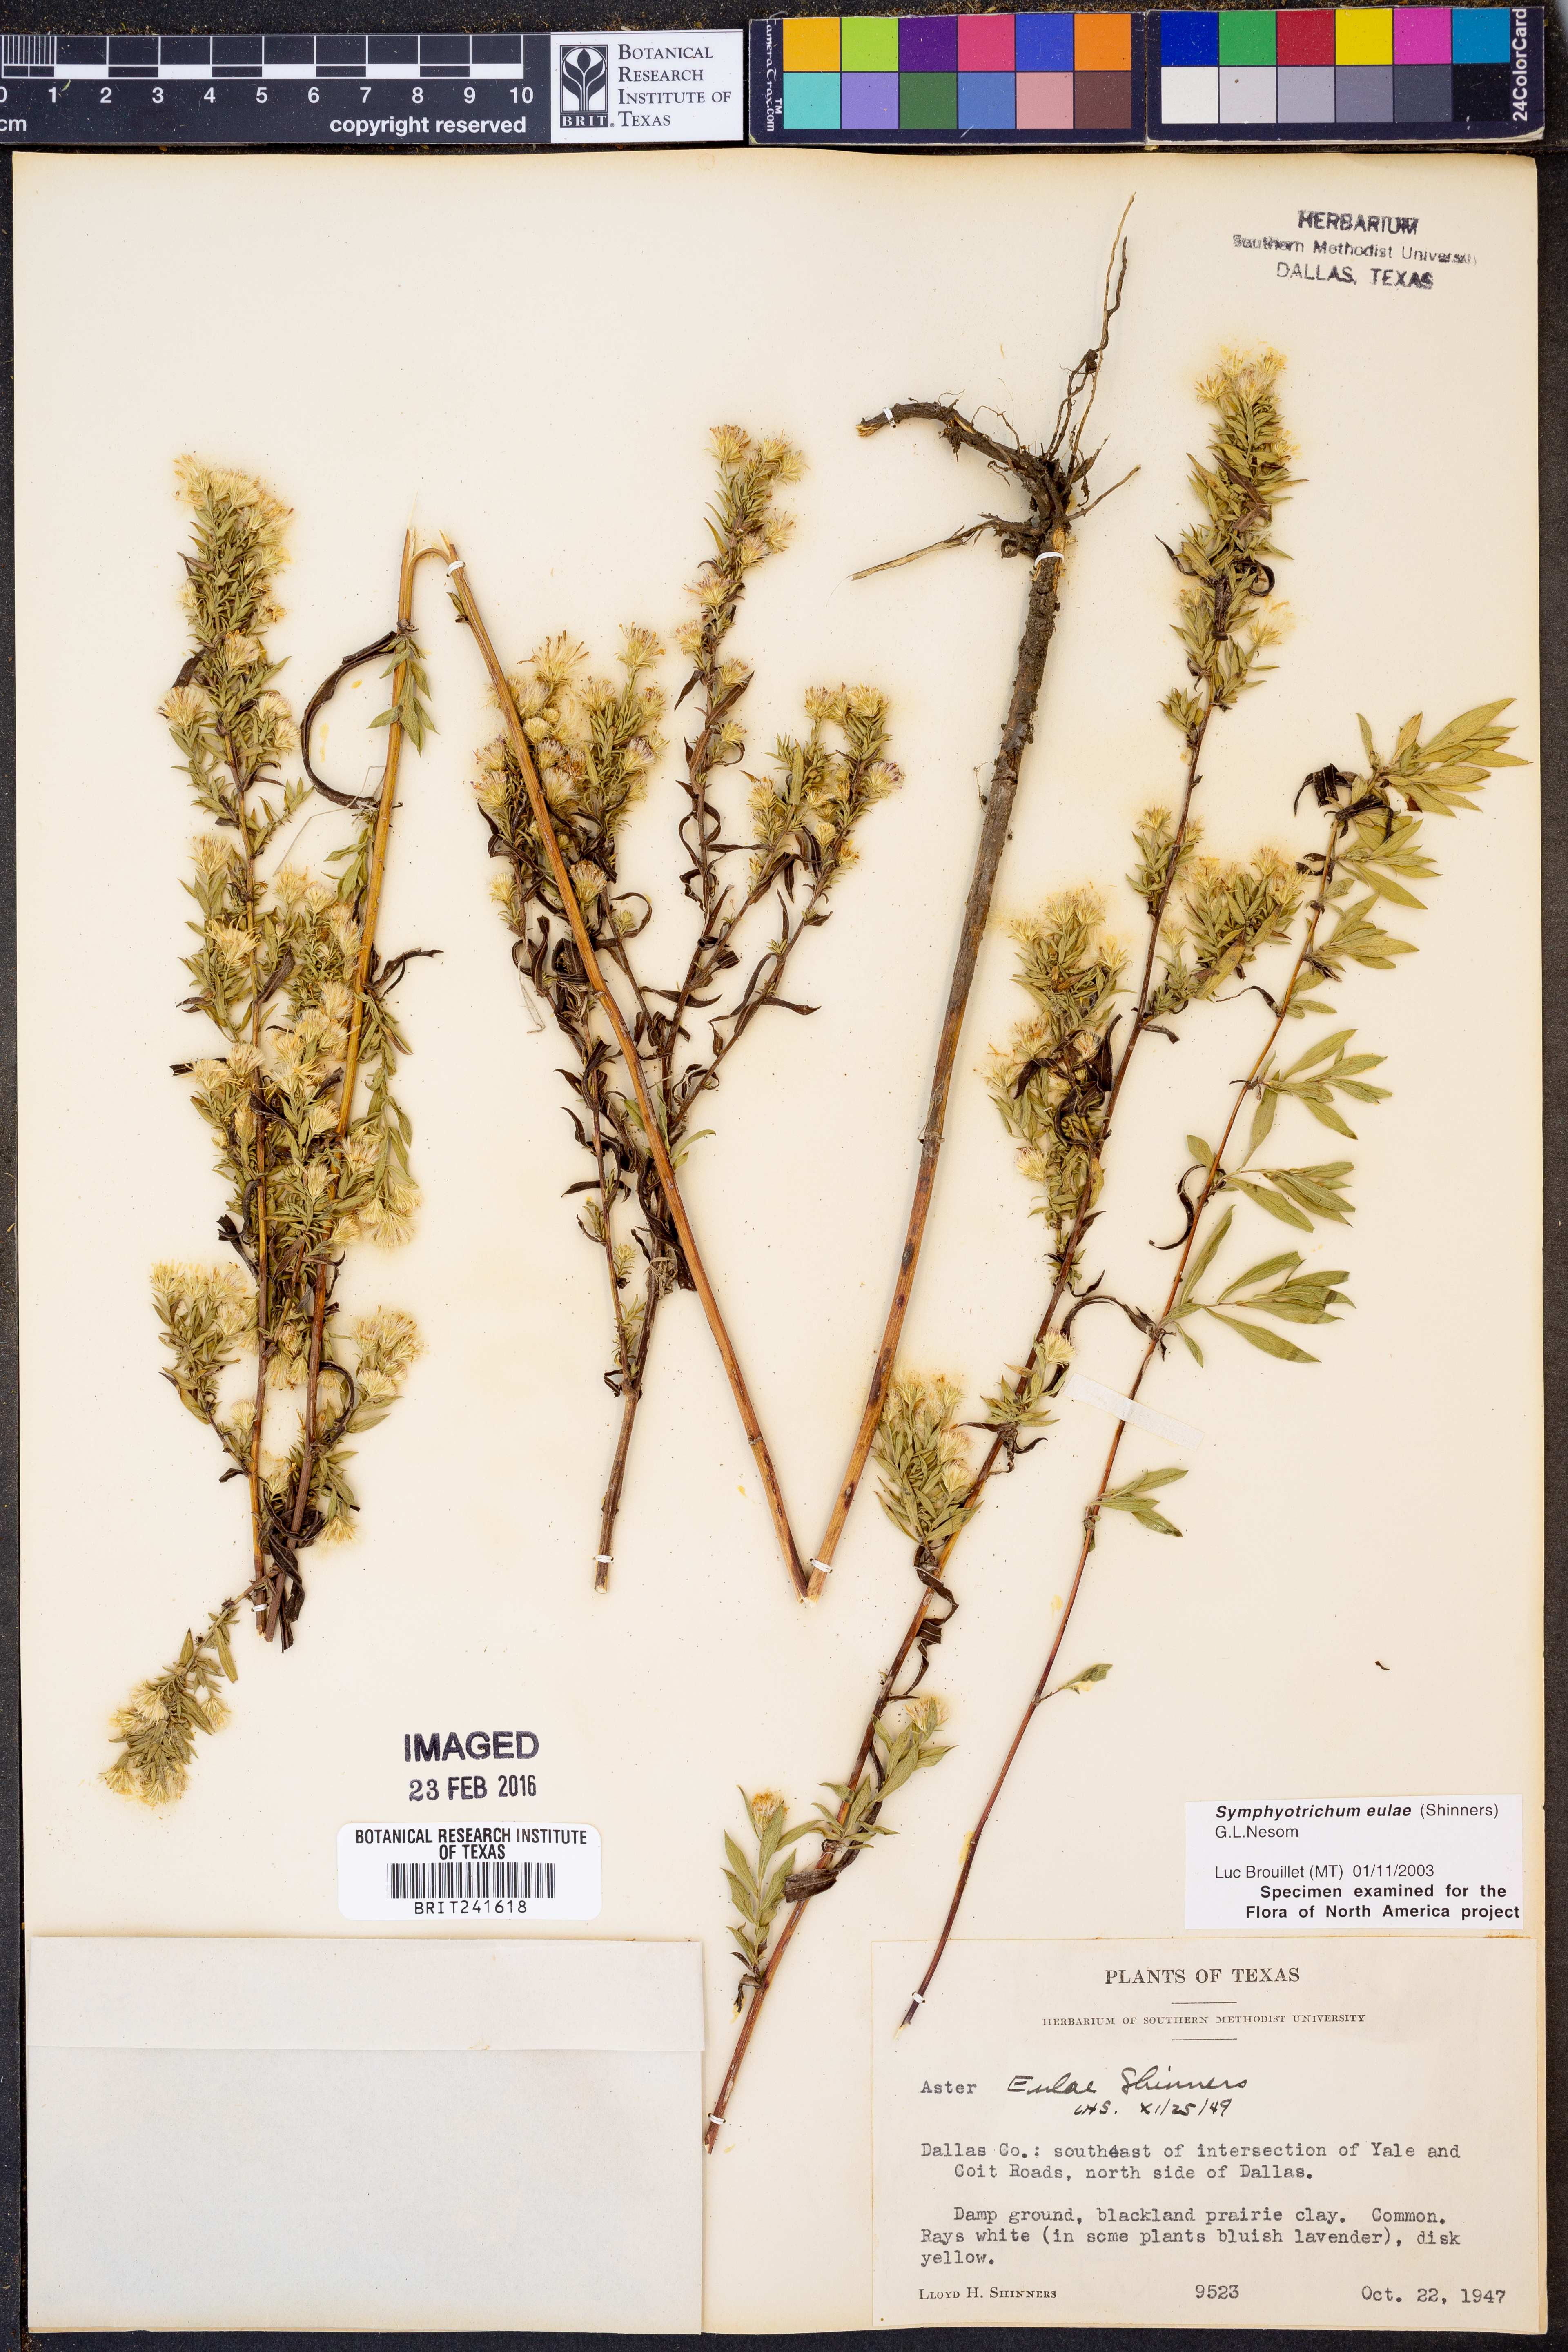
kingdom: Plantae
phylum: Tracheophyta
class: Magnoliopsida
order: Asterales
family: Asteraceae
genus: Symphyotrichum
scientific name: Symphyotrichum eulae
